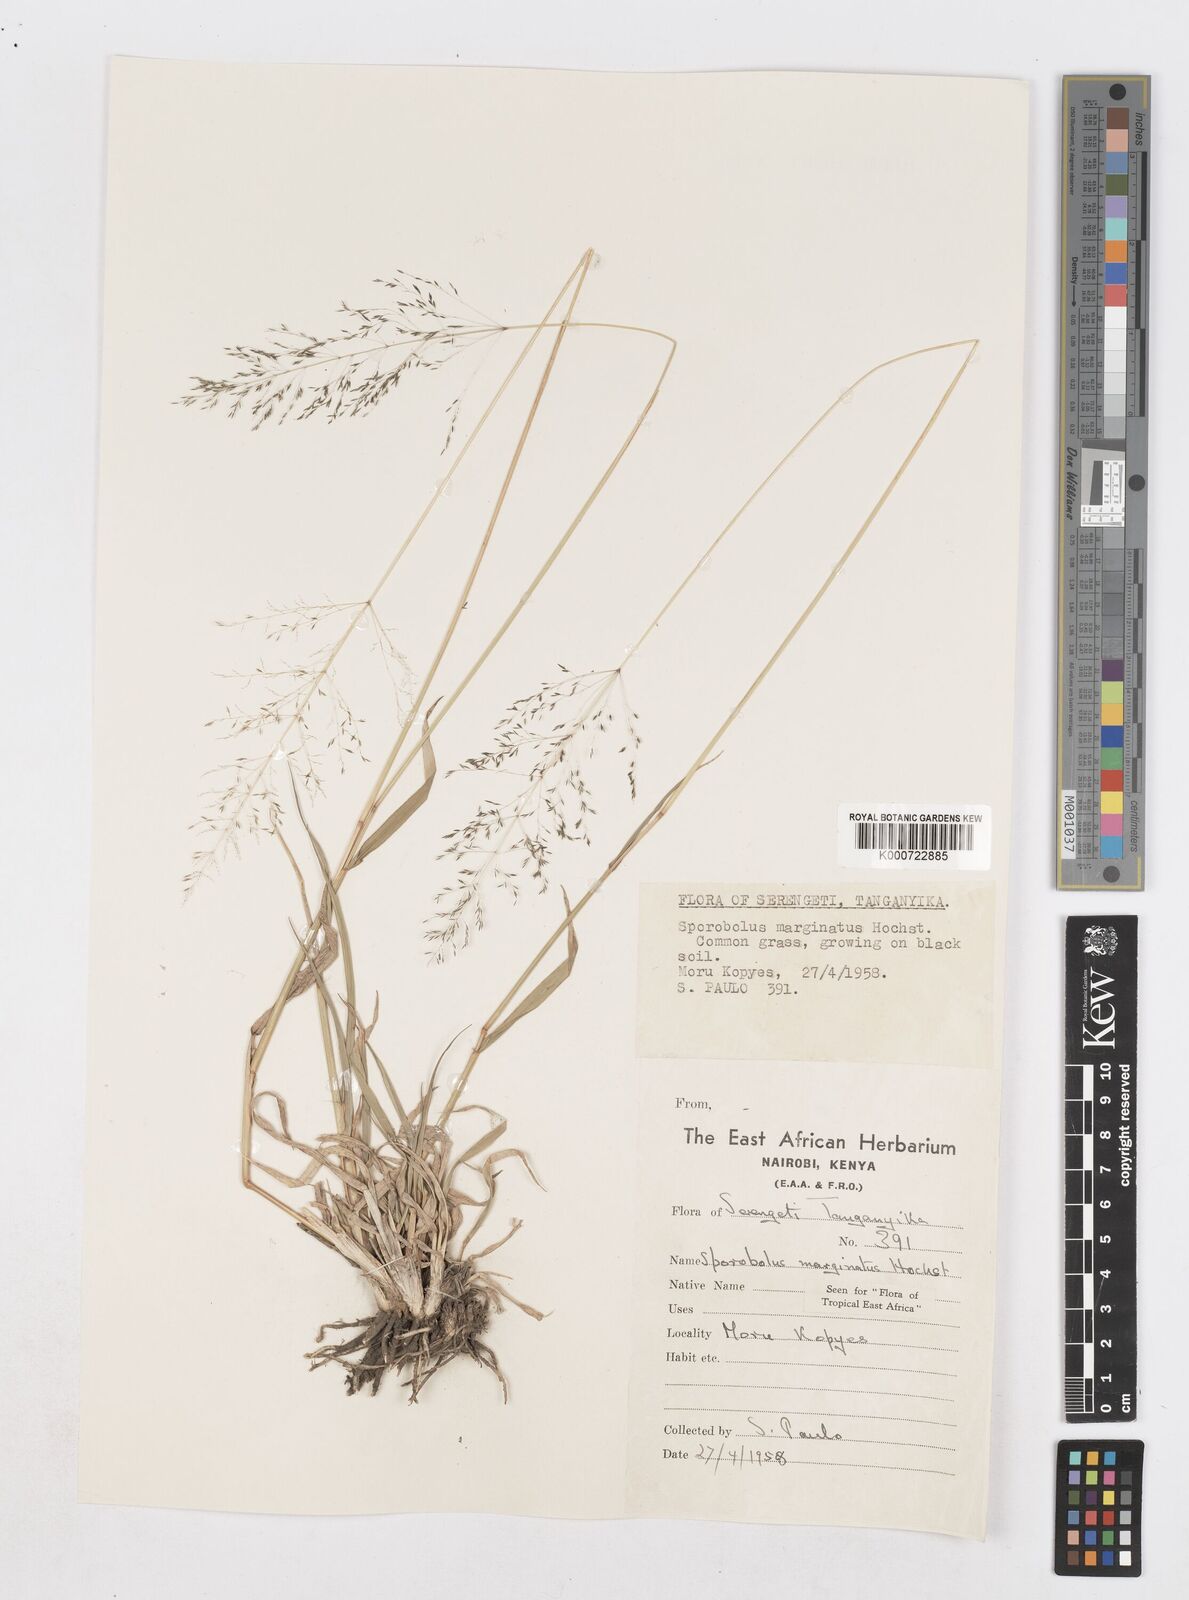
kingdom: Plantae
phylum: Tracheophyta
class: Liliopsida
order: Poales
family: Poaceae
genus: Sporobolus
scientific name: Sporobolus ioclados
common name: Pan dropseed
